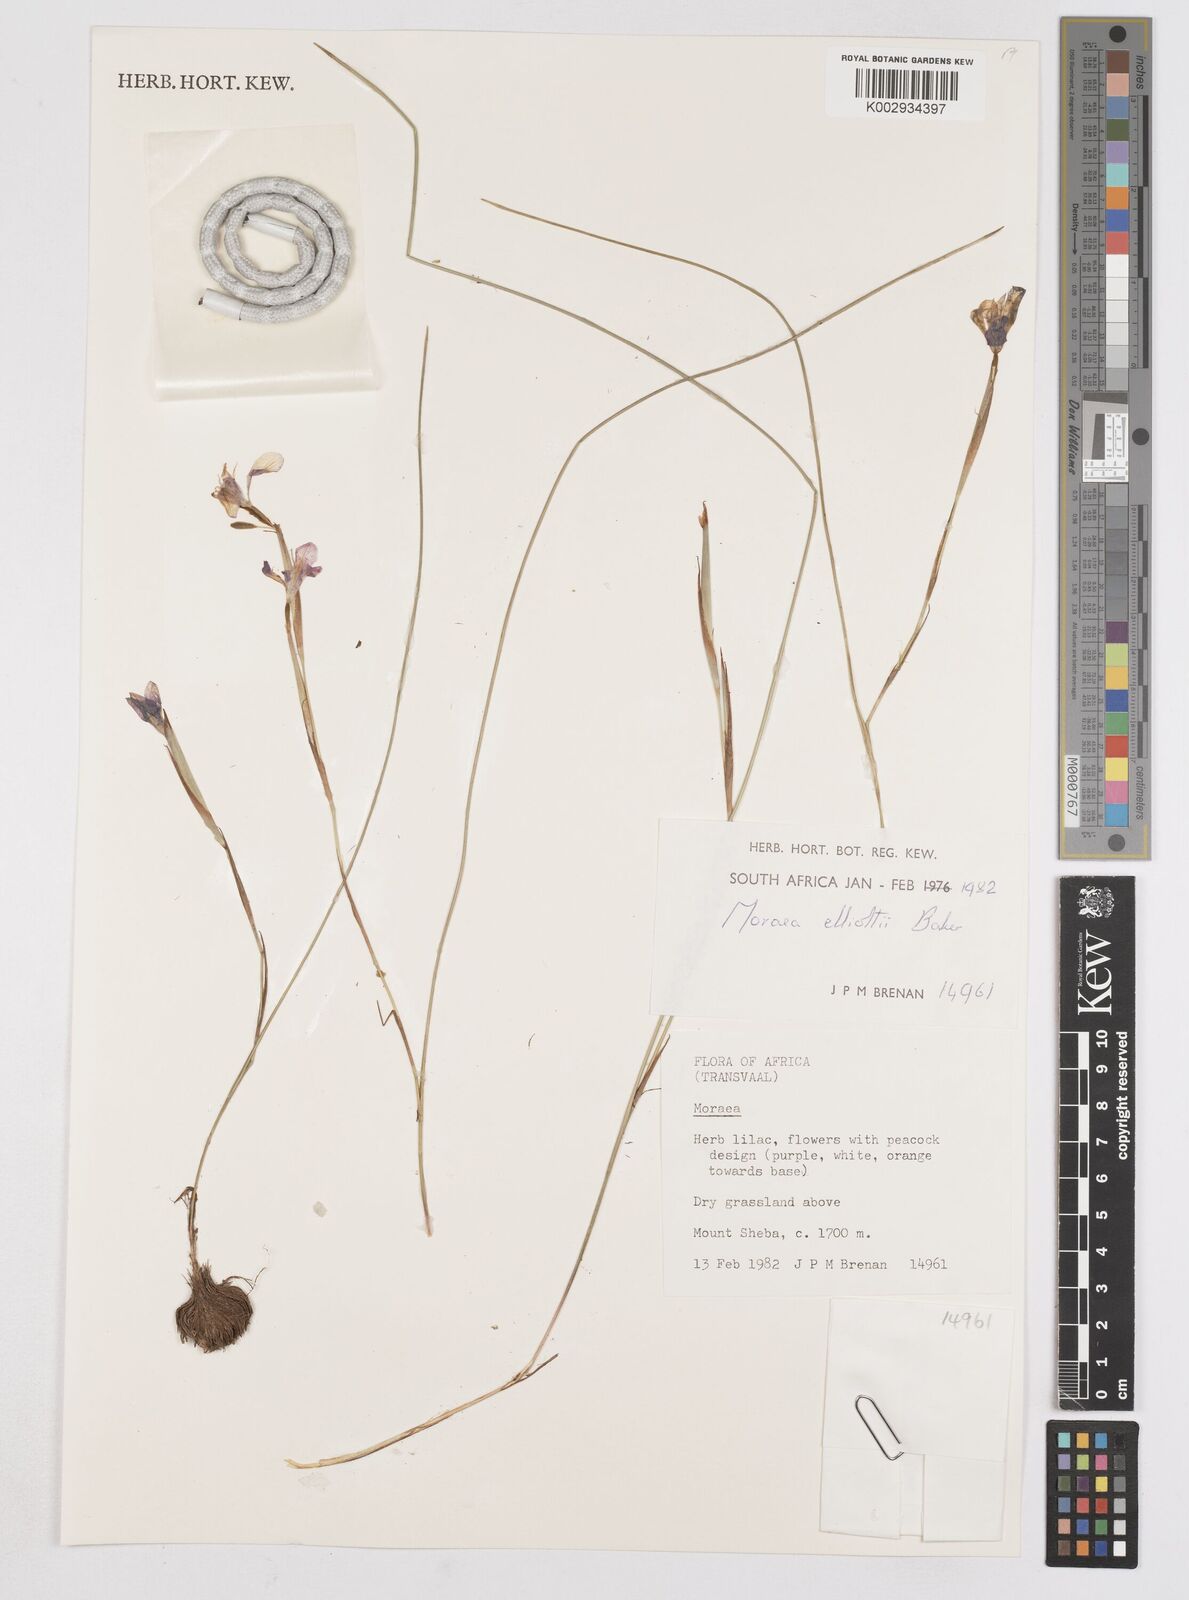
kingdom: Plantae
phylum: Tracheophyta
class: Liliopsida
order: Asparagales
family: Iridaceae
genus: Moraea
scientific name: Moraea elliotii
